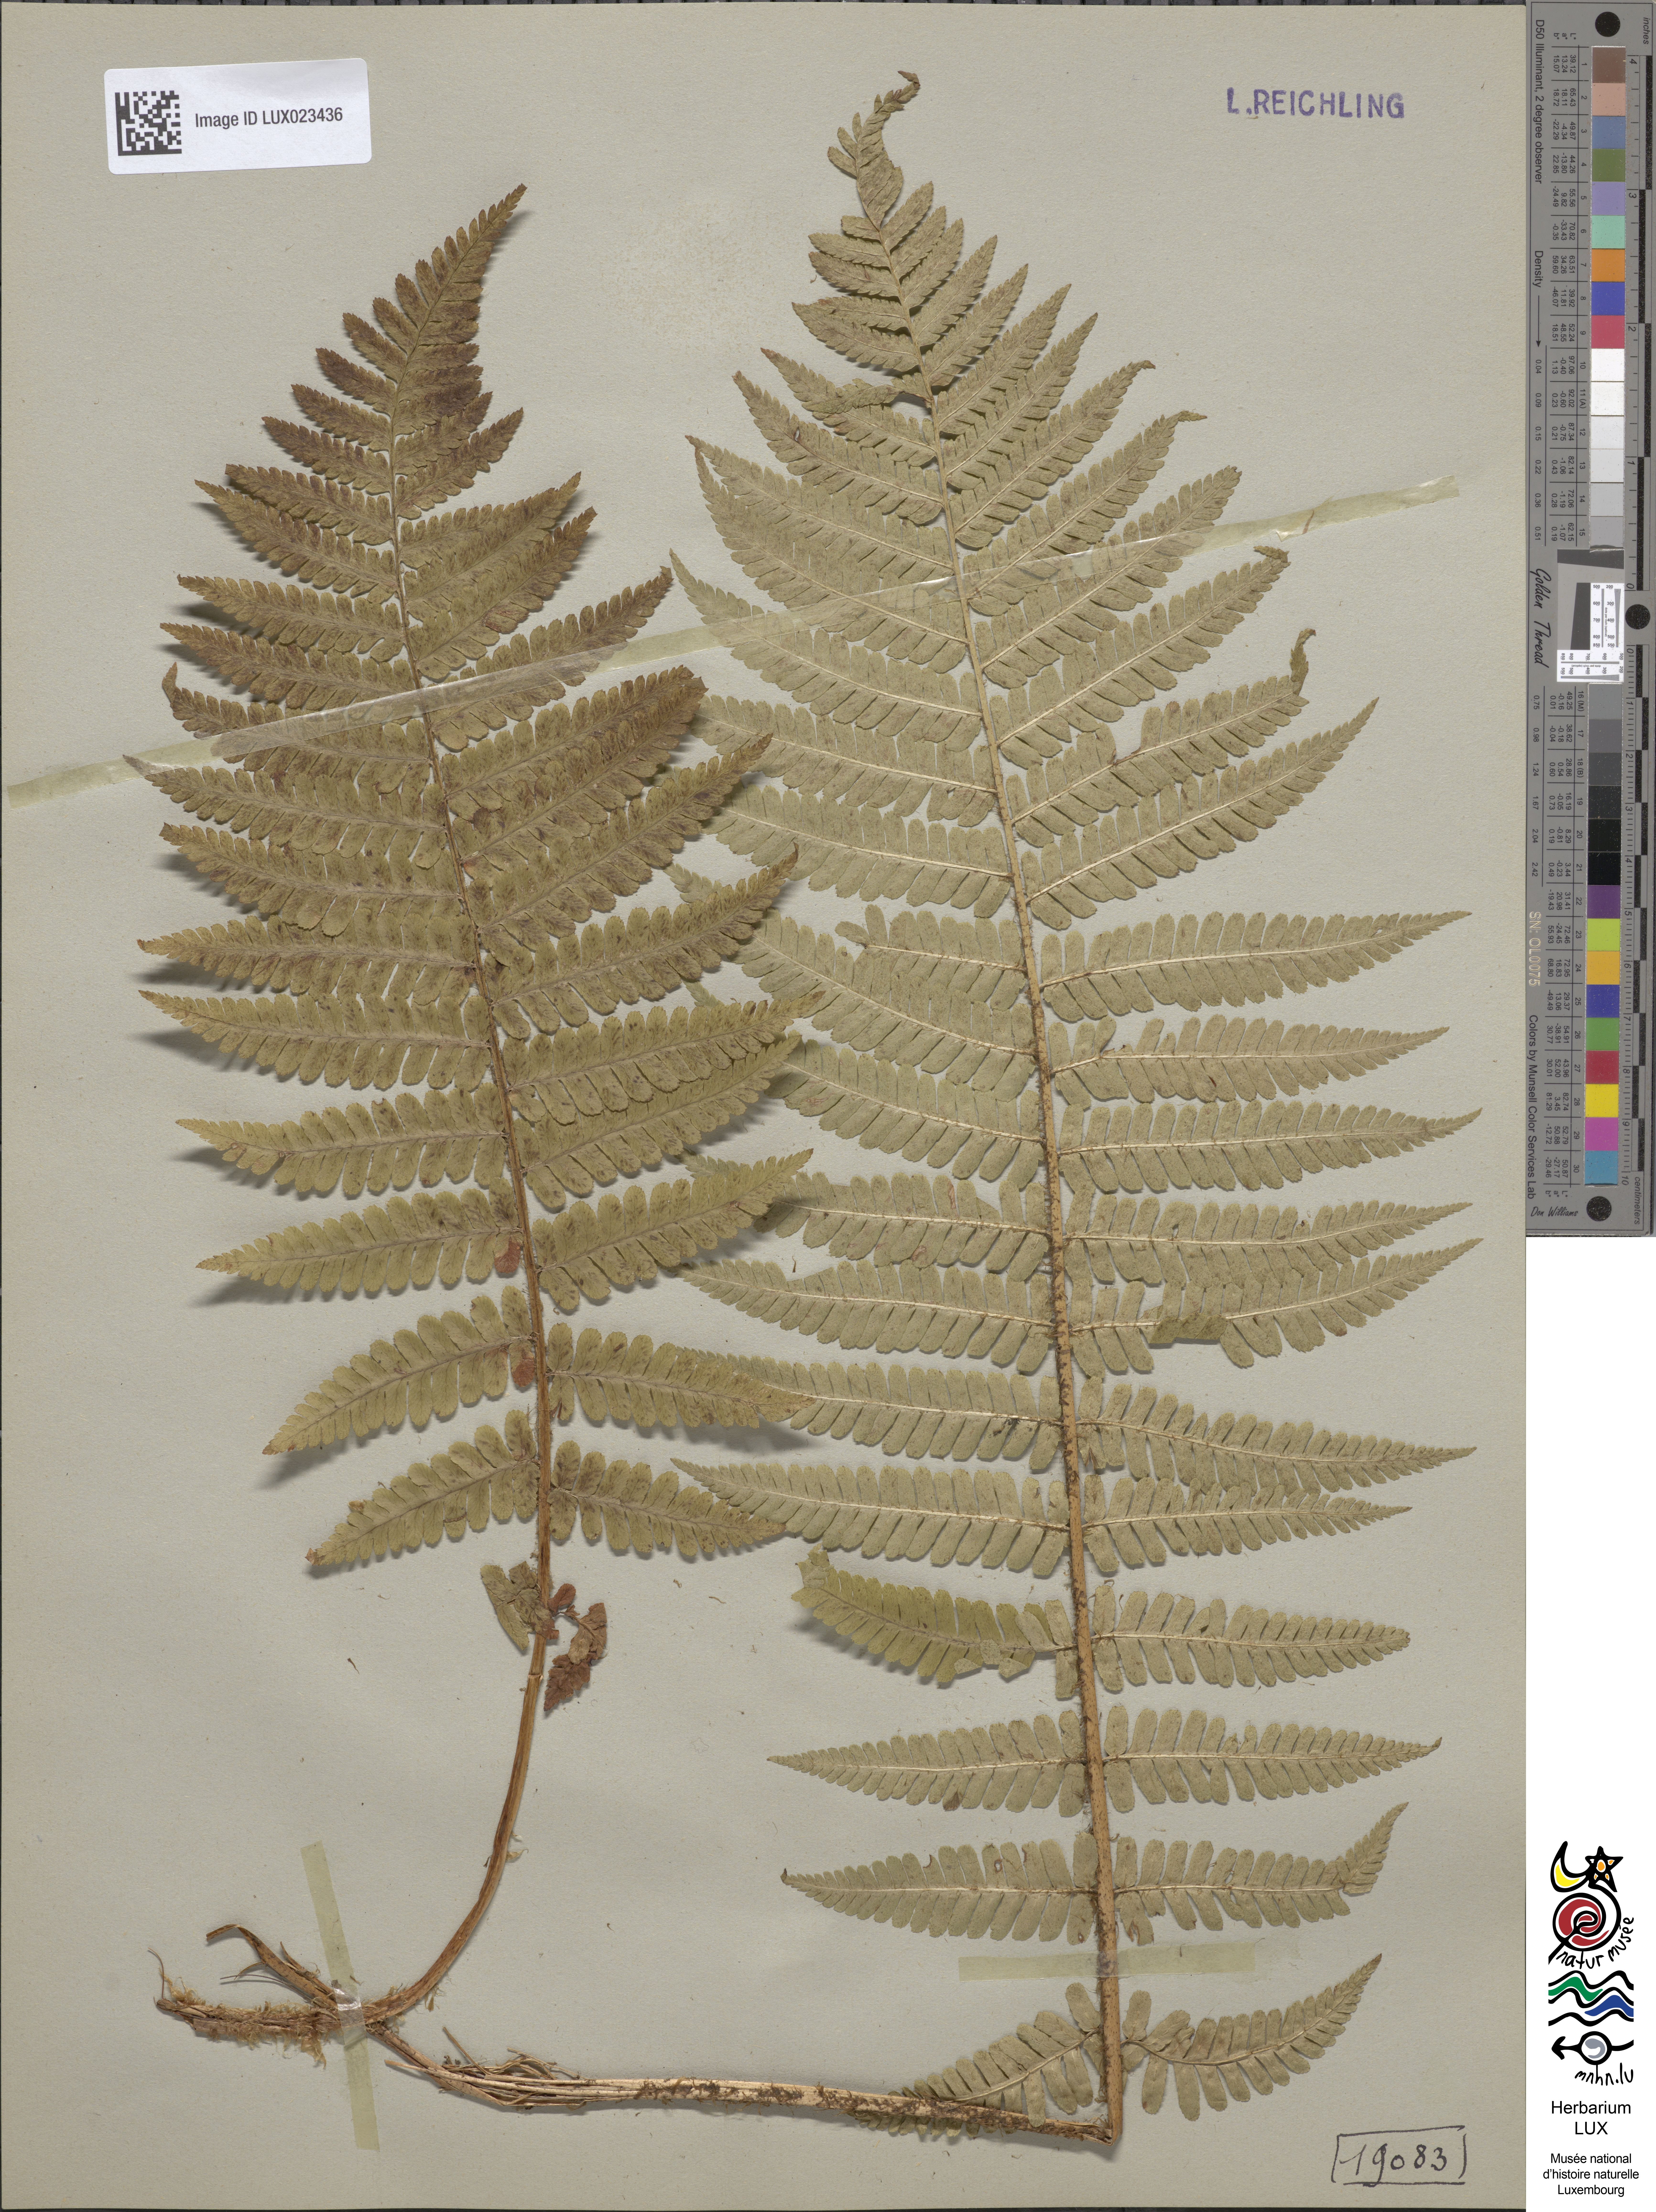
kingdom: Plantae
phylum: Tracheophyta
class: Polypodiopsida
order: Polypodiales
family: Dryopteridaceae
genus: Dryopteris
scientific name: Dryopteris borreri
